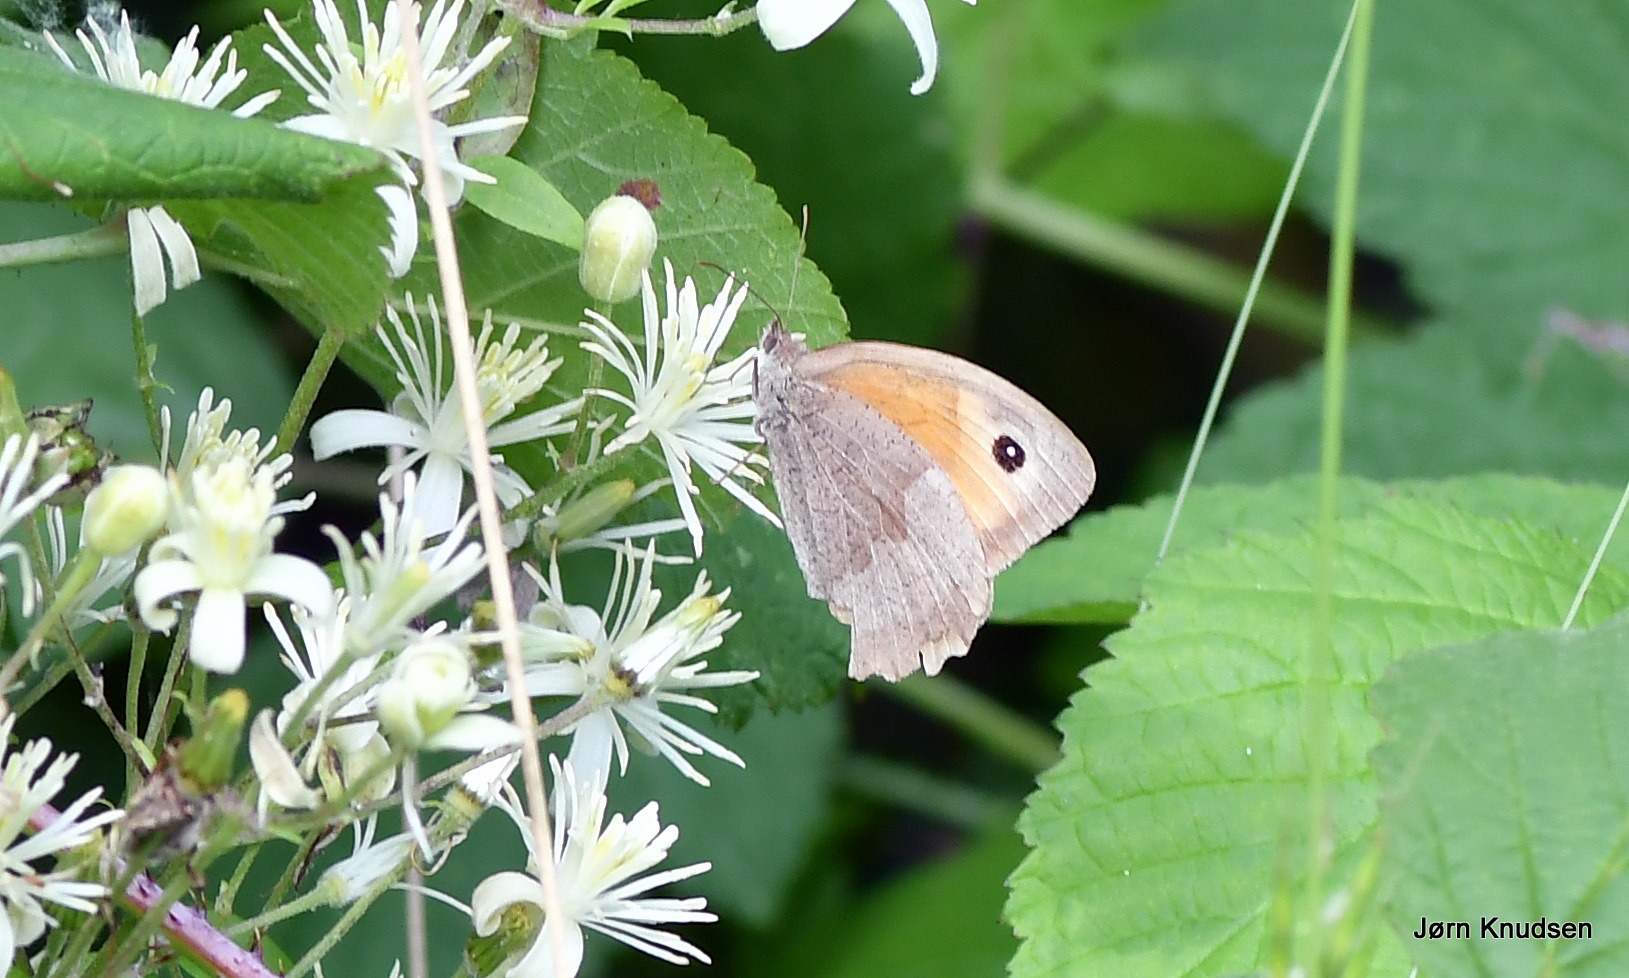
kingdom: Animalia
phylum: Arthropoda
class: Insecta
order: Lepidoptera
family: Nymphalidae
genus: Maniola
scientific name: Maniola jurtina
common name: Græsrandøje
